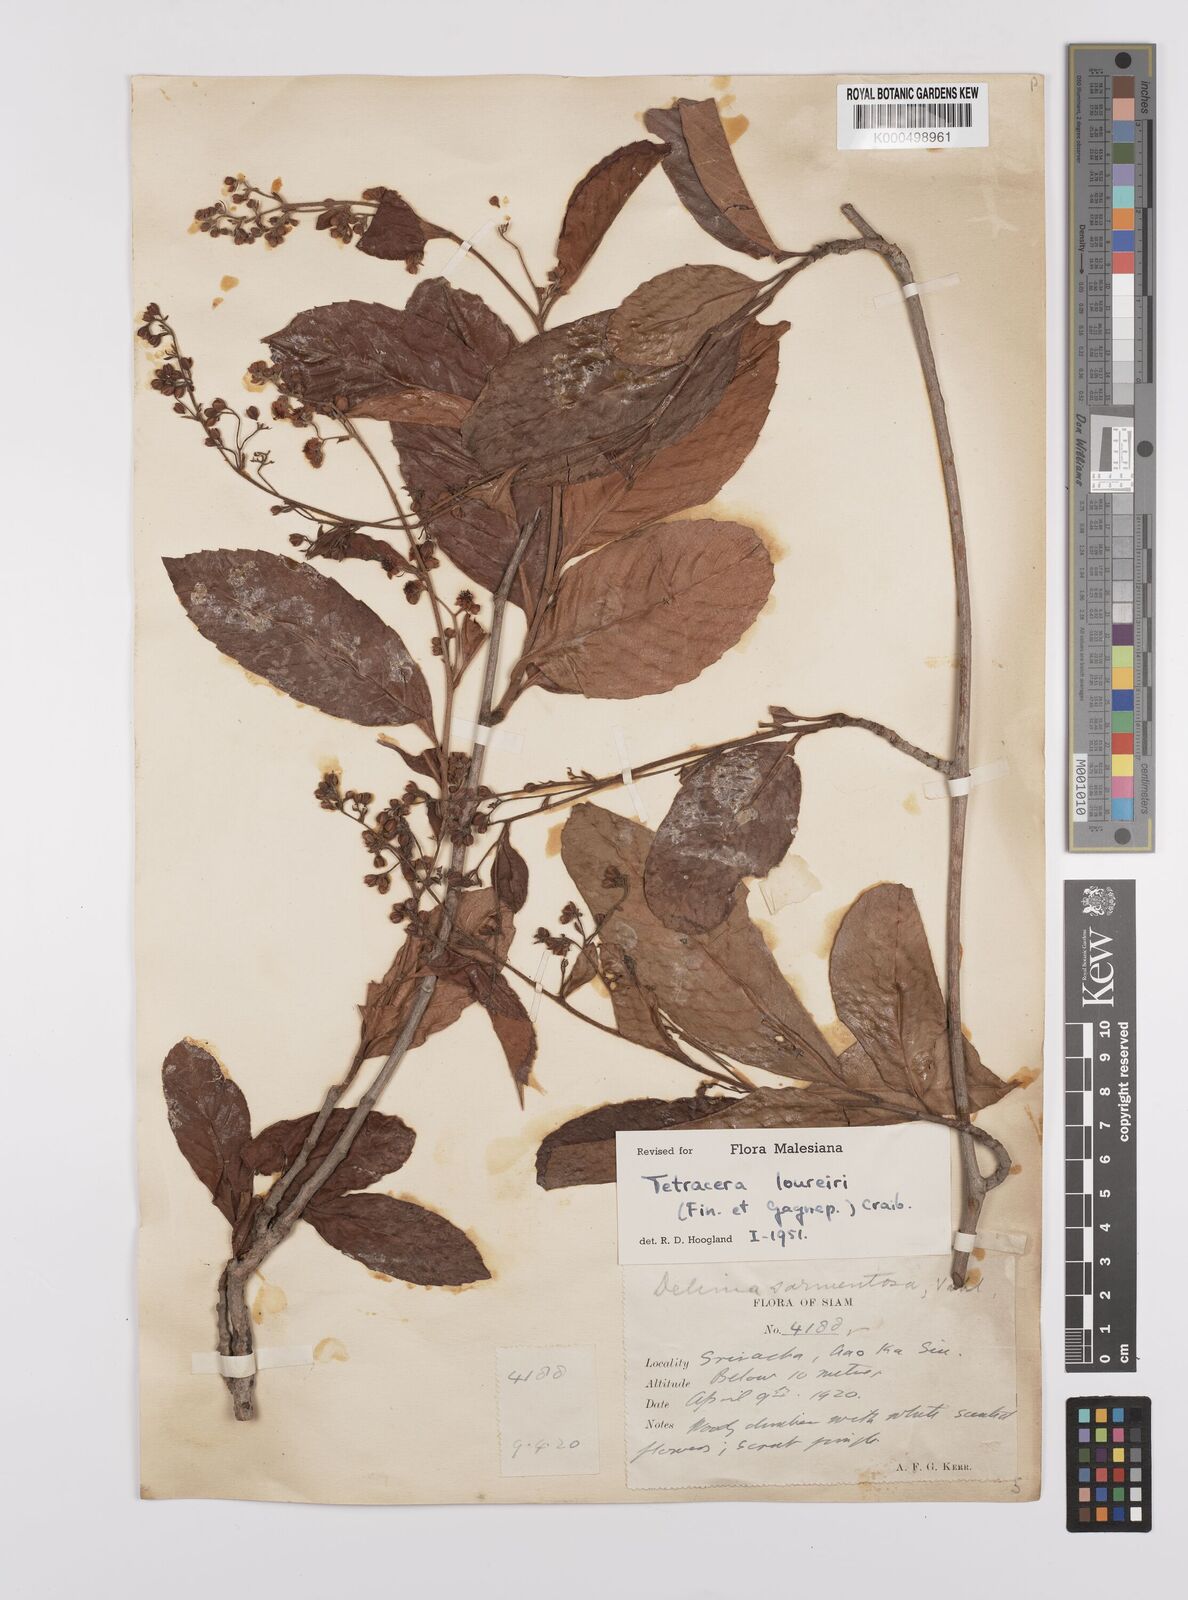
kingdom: Plantae
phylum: Tracheophyta
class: Magnoliopsida
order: Dilleniales
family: Dilleniaceae
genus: Tetracera
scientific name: Tetracera scandens
